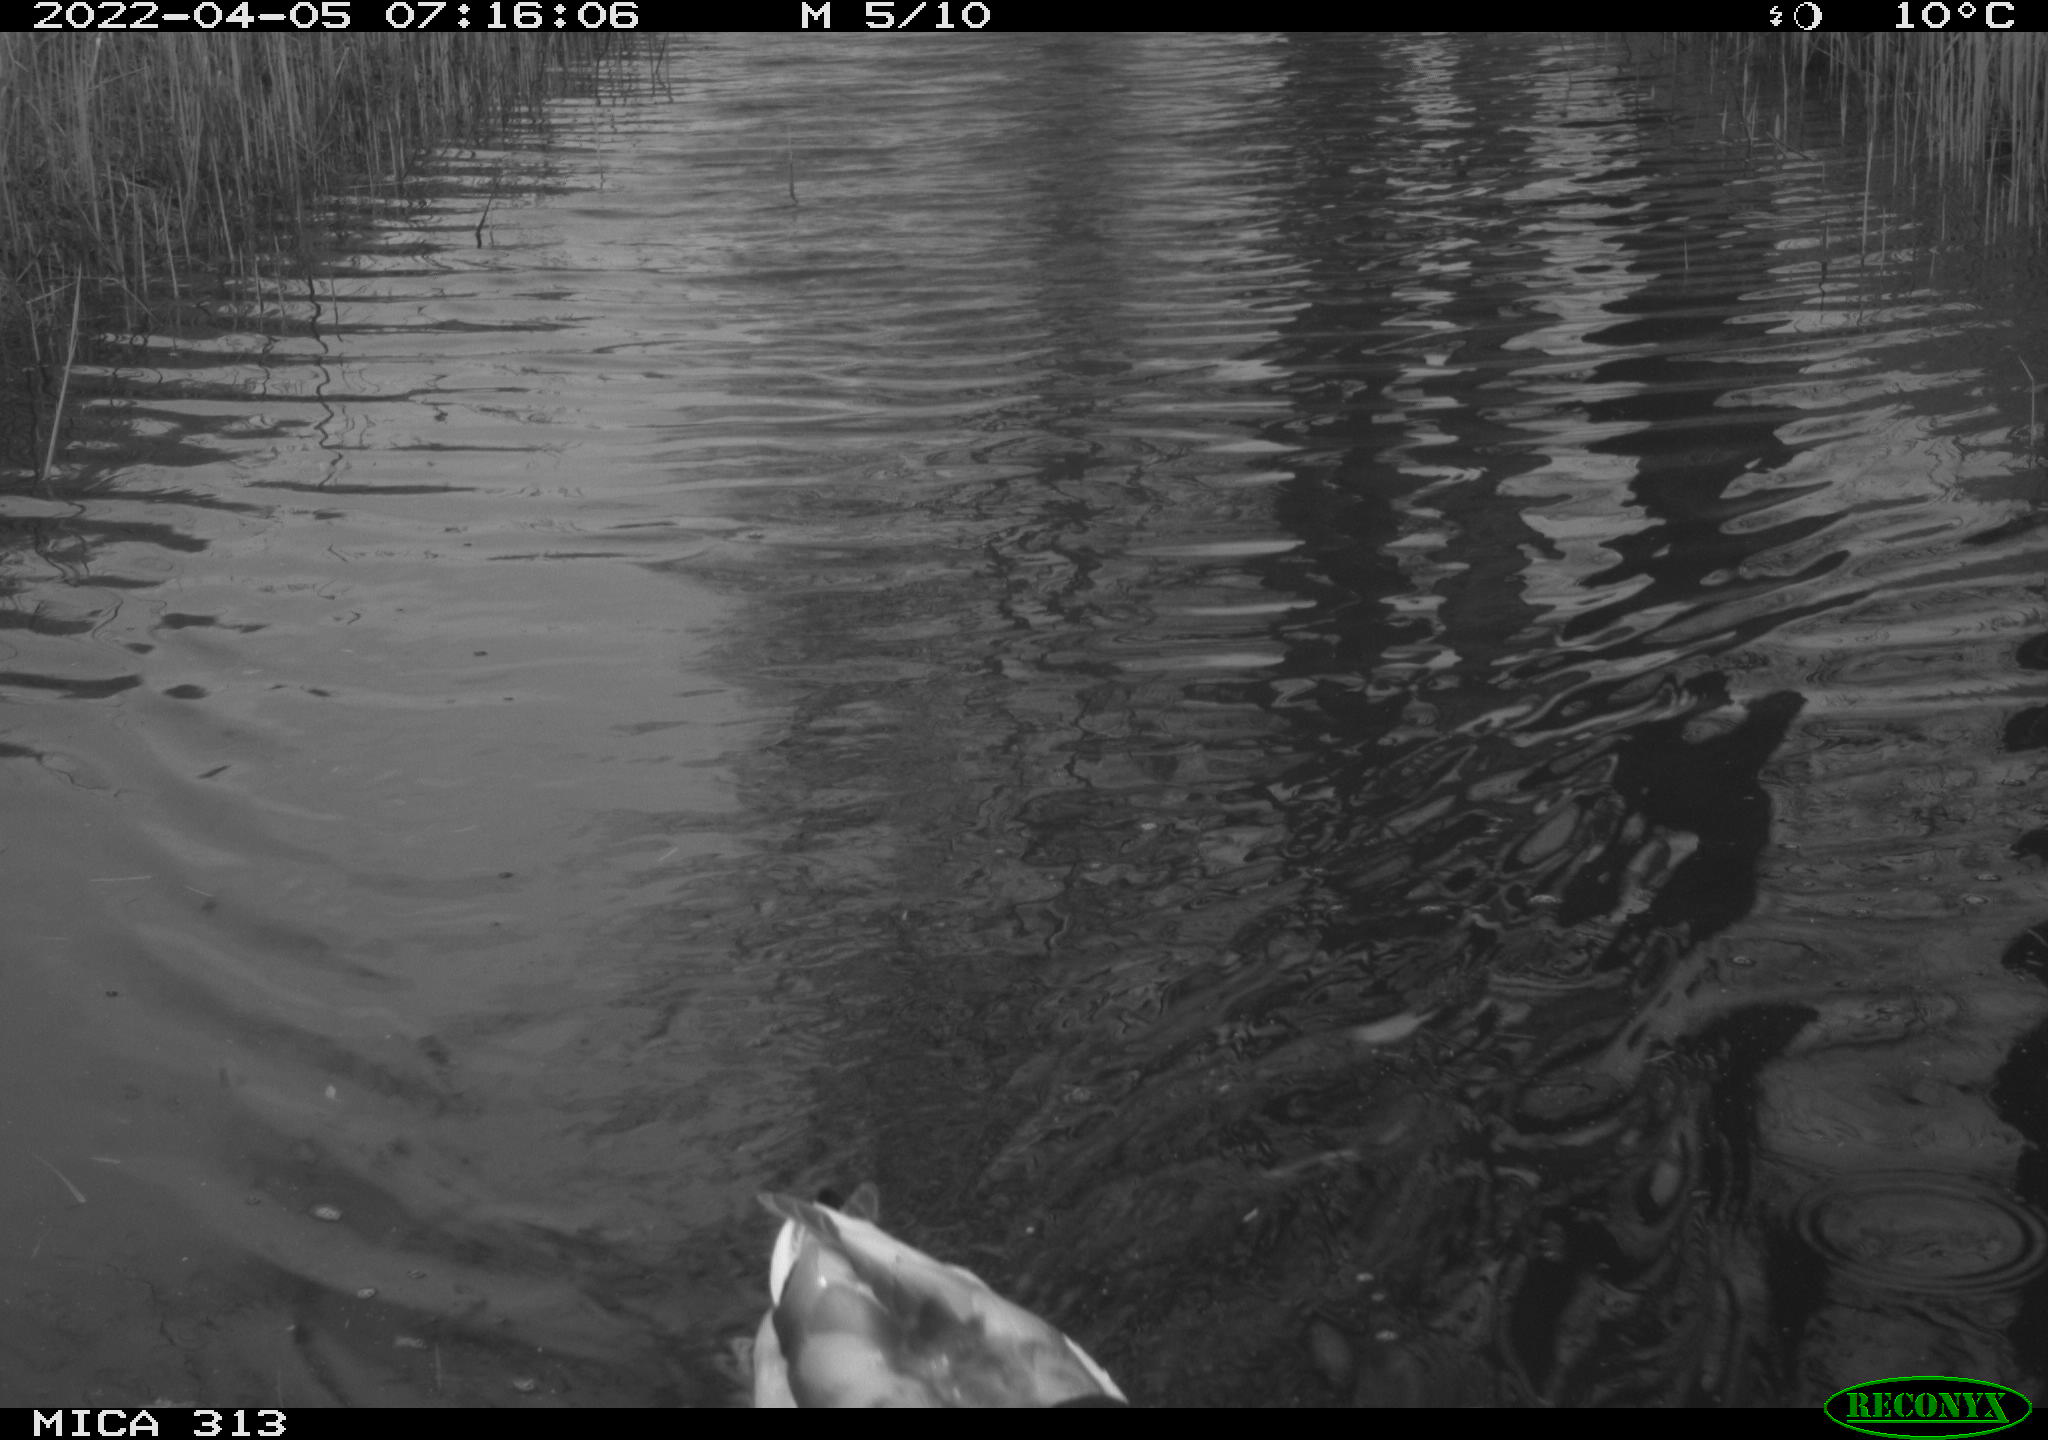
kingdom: Animalia
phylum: Chordata
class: Aves
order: Anseriformes
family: Anatidae
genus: Anas
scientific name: Anas platyrhynchos
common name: Mallard
